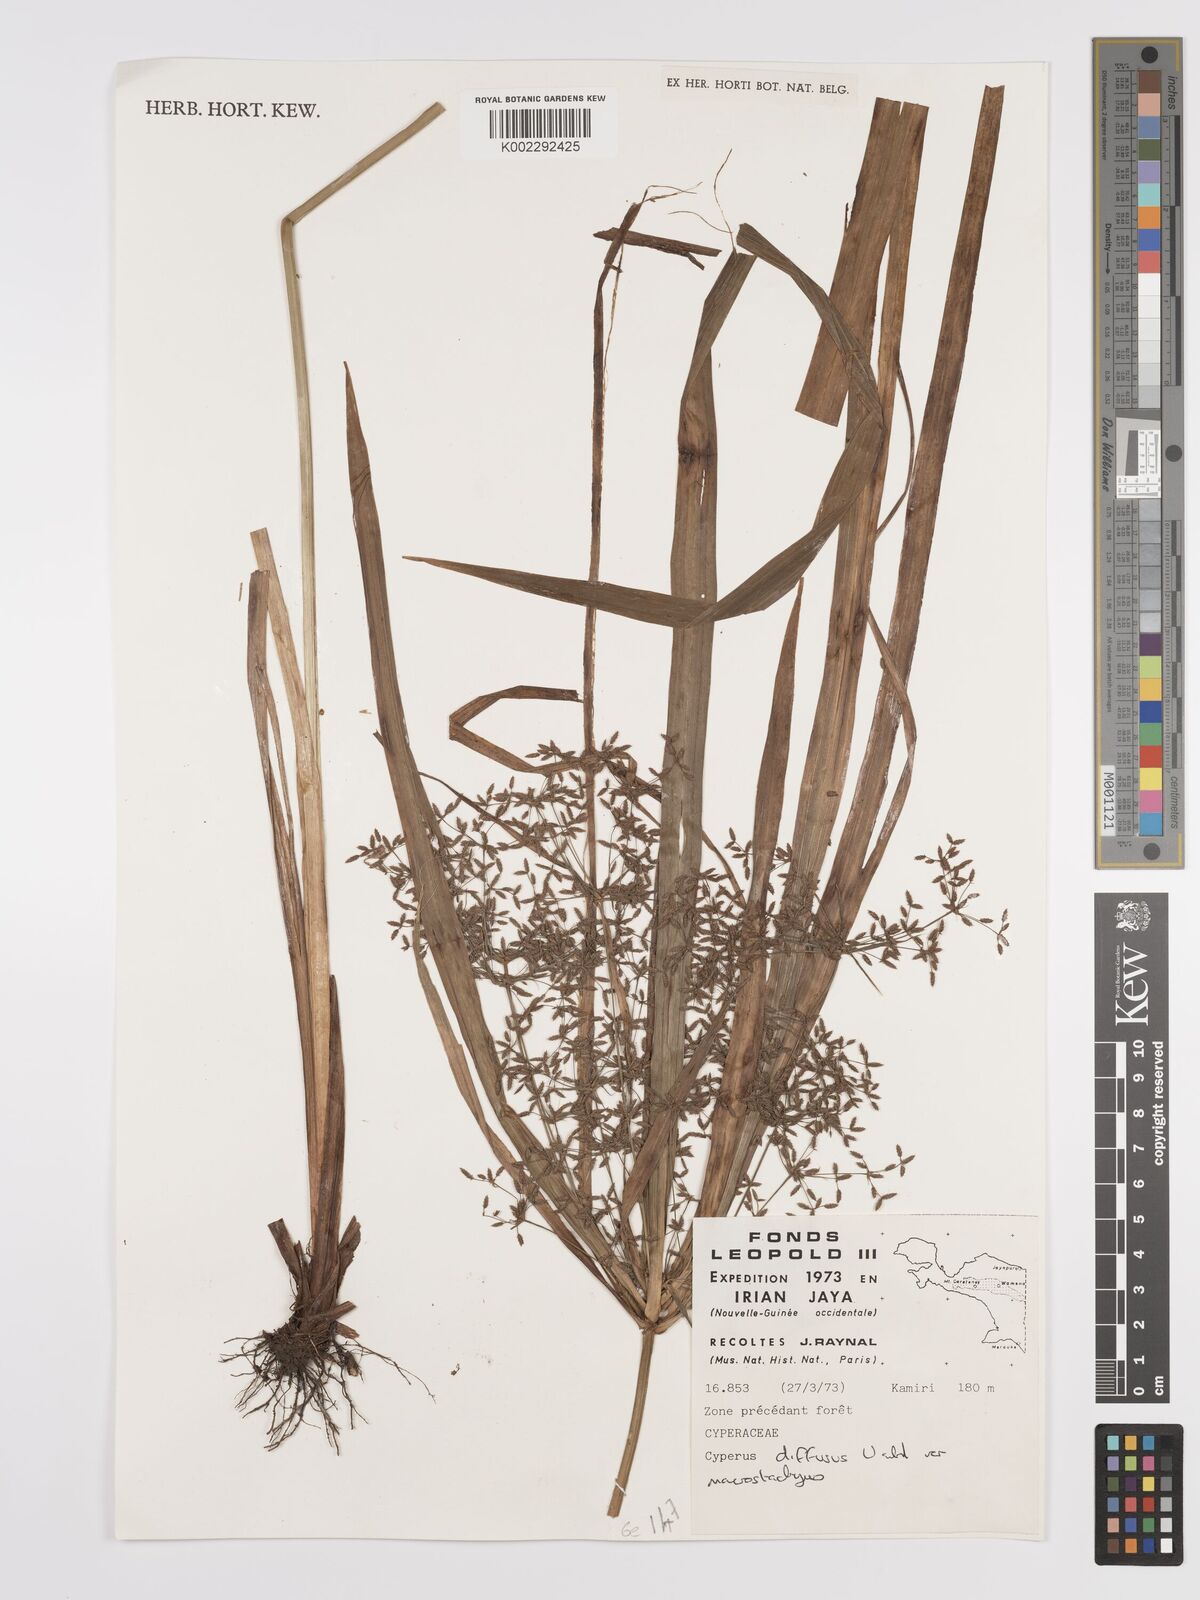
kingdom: Plantae
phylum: Tracheophyta
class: Liliopsida
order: Poales
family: Cyperaceae
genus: Cyperus
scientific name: Cyperus diffusus
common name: Dwarf umbrella grass
